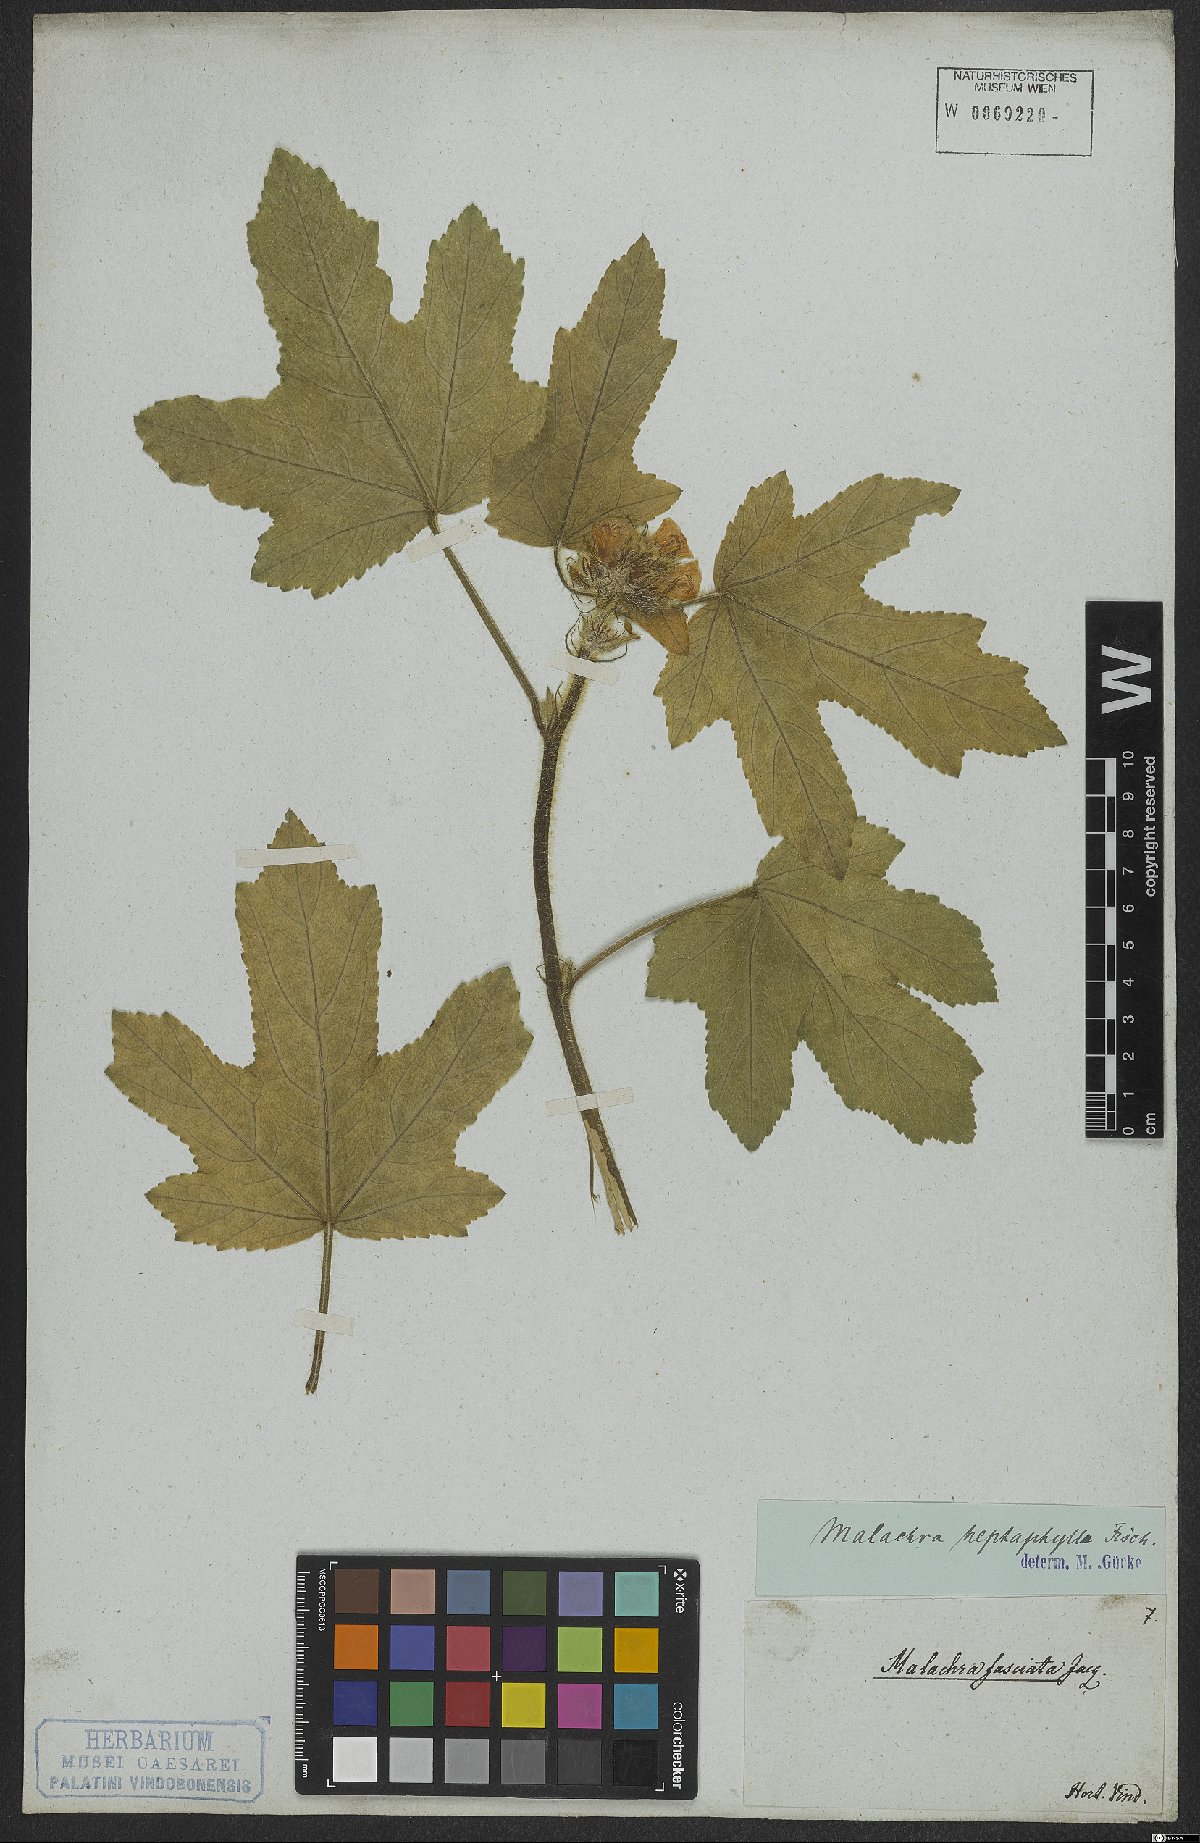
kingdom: Plantae
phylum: Tracheophyta
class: Magnoliopsida
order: Malvales
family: Malvaceae
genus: Malachra
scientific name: Malachra capitata
